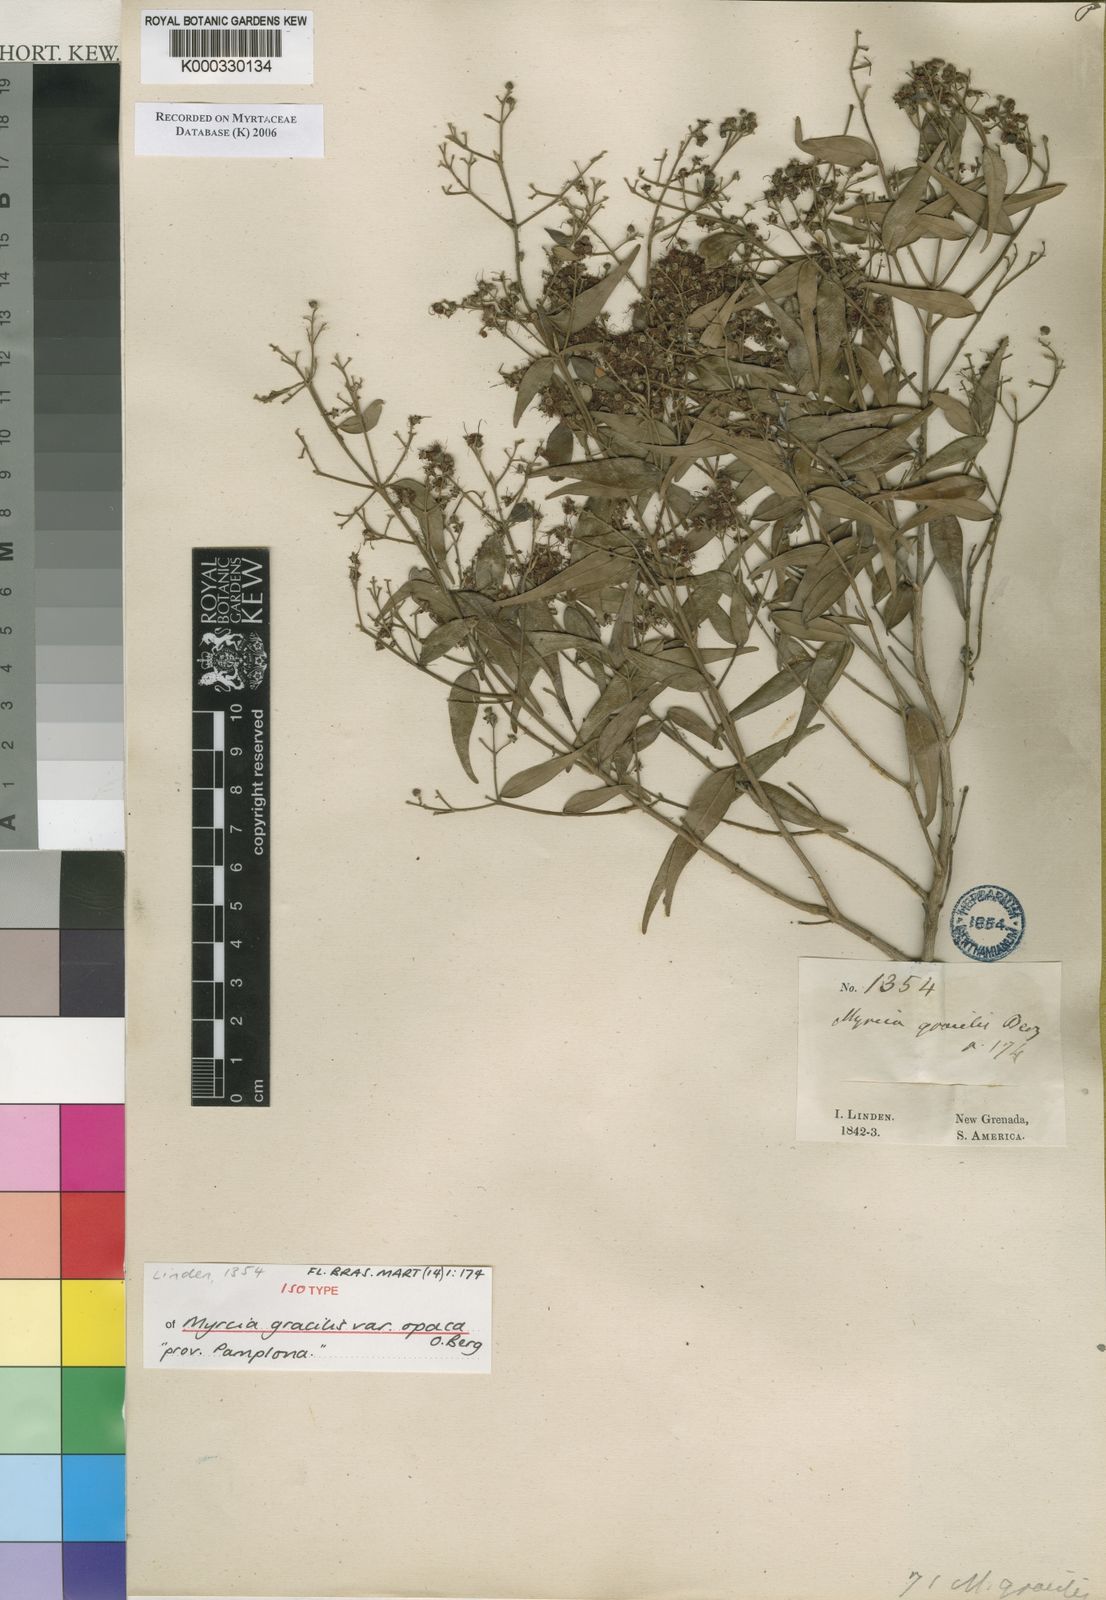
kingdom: Plantae
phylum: Tracheophyta
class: Magnoliopsida
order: Myrtales
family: Myrtaceae
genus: Myrcia
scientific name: Myrcia splendens
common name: Surinam cherry
